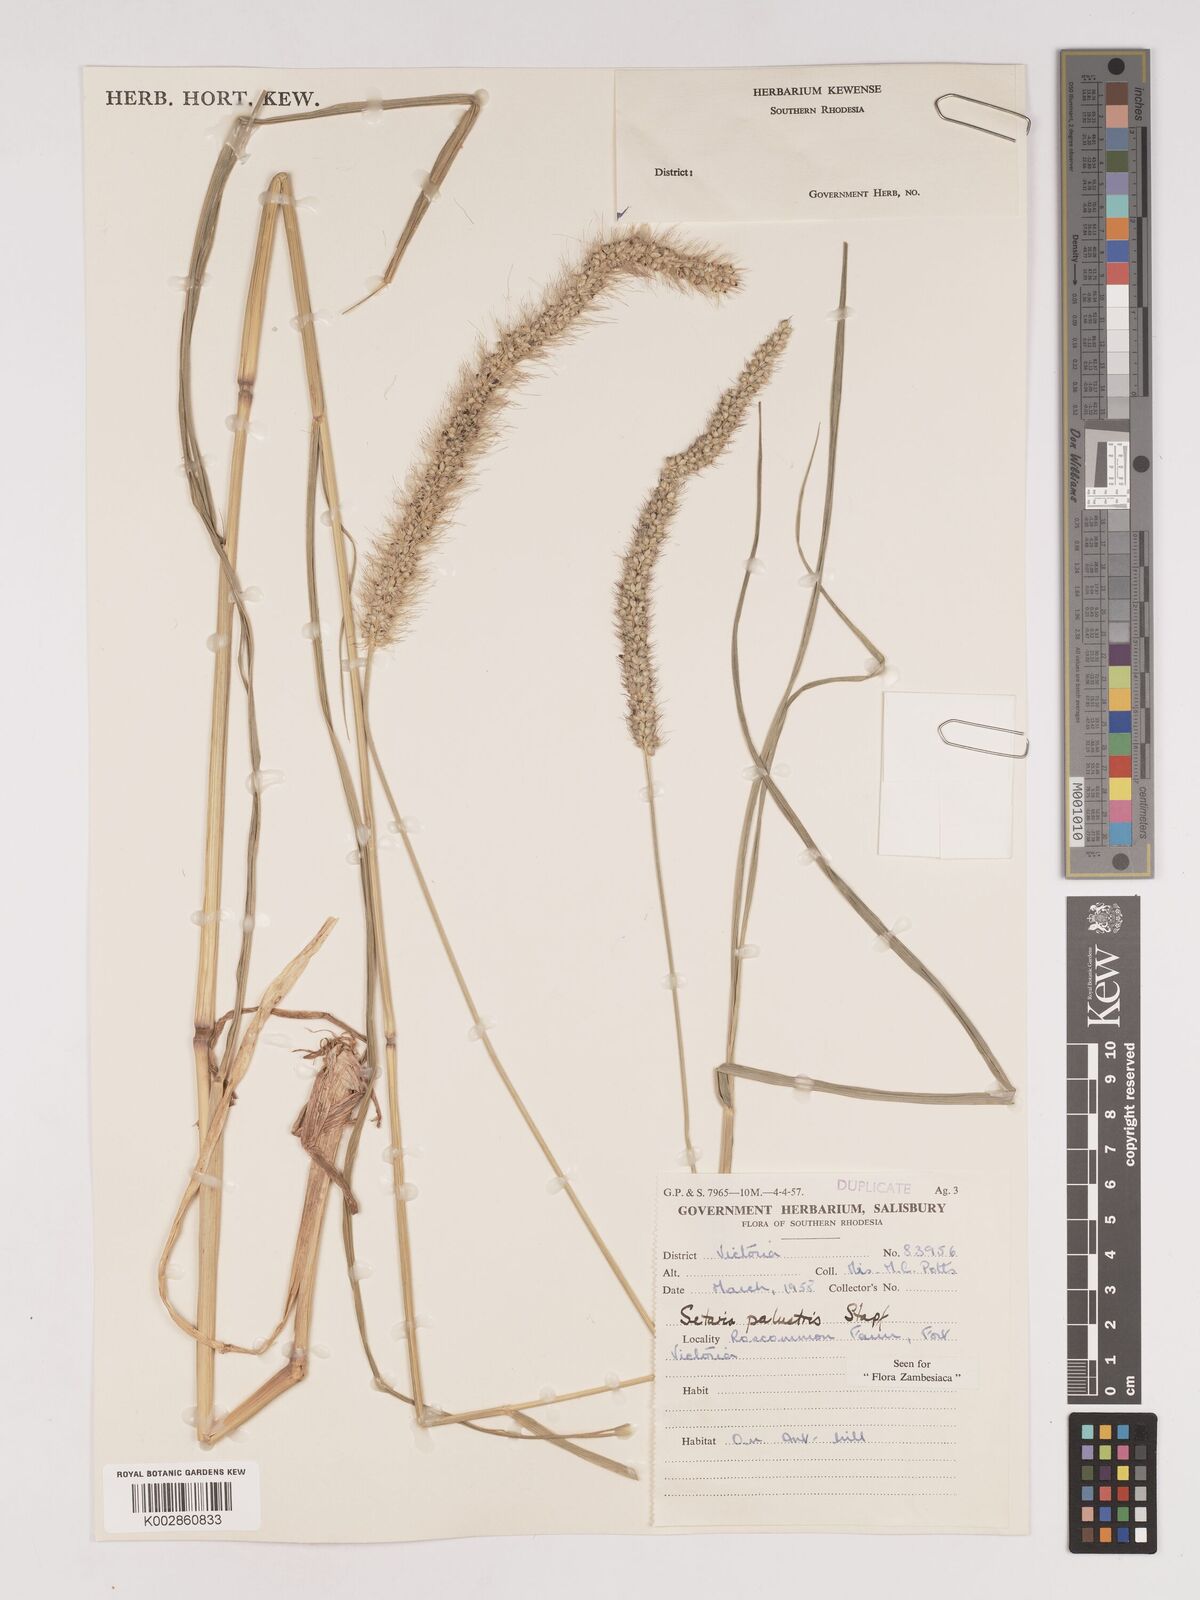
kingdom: Plantae
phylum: Tracheophyta
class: Liliopsida
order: Poales
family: Poaceae
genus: Setaria
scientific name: Setaria incrassata
